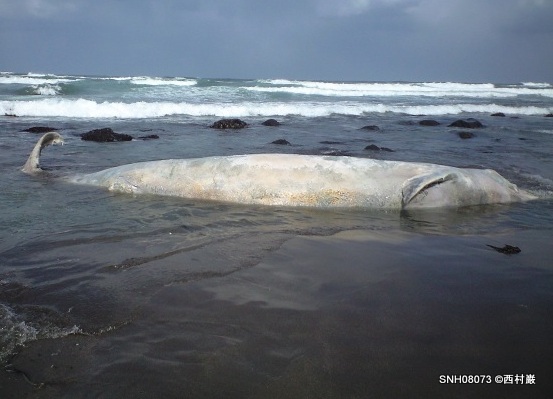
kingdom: Animalia
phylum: Chordata
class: Mammalia
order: Cetacea
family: Hyperoodontidae
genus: Berardius
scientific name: Berardius bairdii
